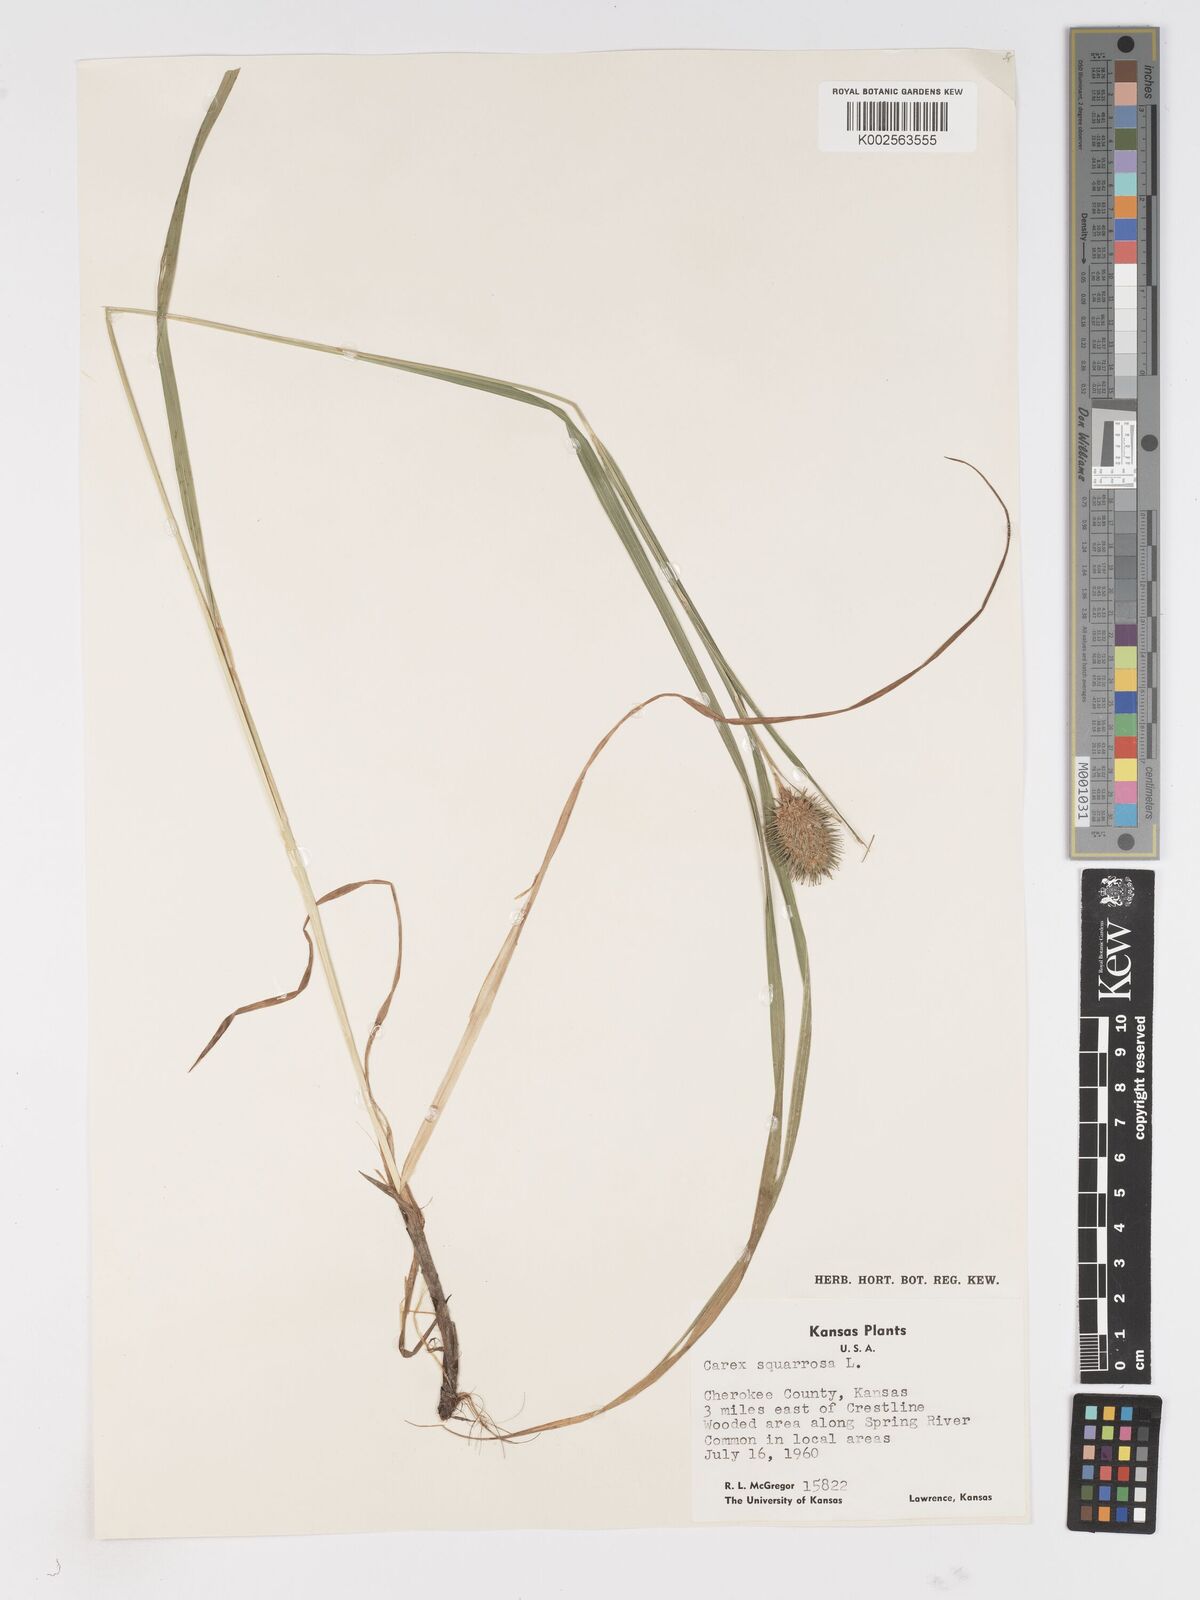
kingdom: Plantae
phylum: Tracheophyta
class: Liliopsida
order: Poales
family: Cyperaceae
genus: Carex
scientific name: Carex squarrosa
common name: Narrow-leaved cattail sedge
